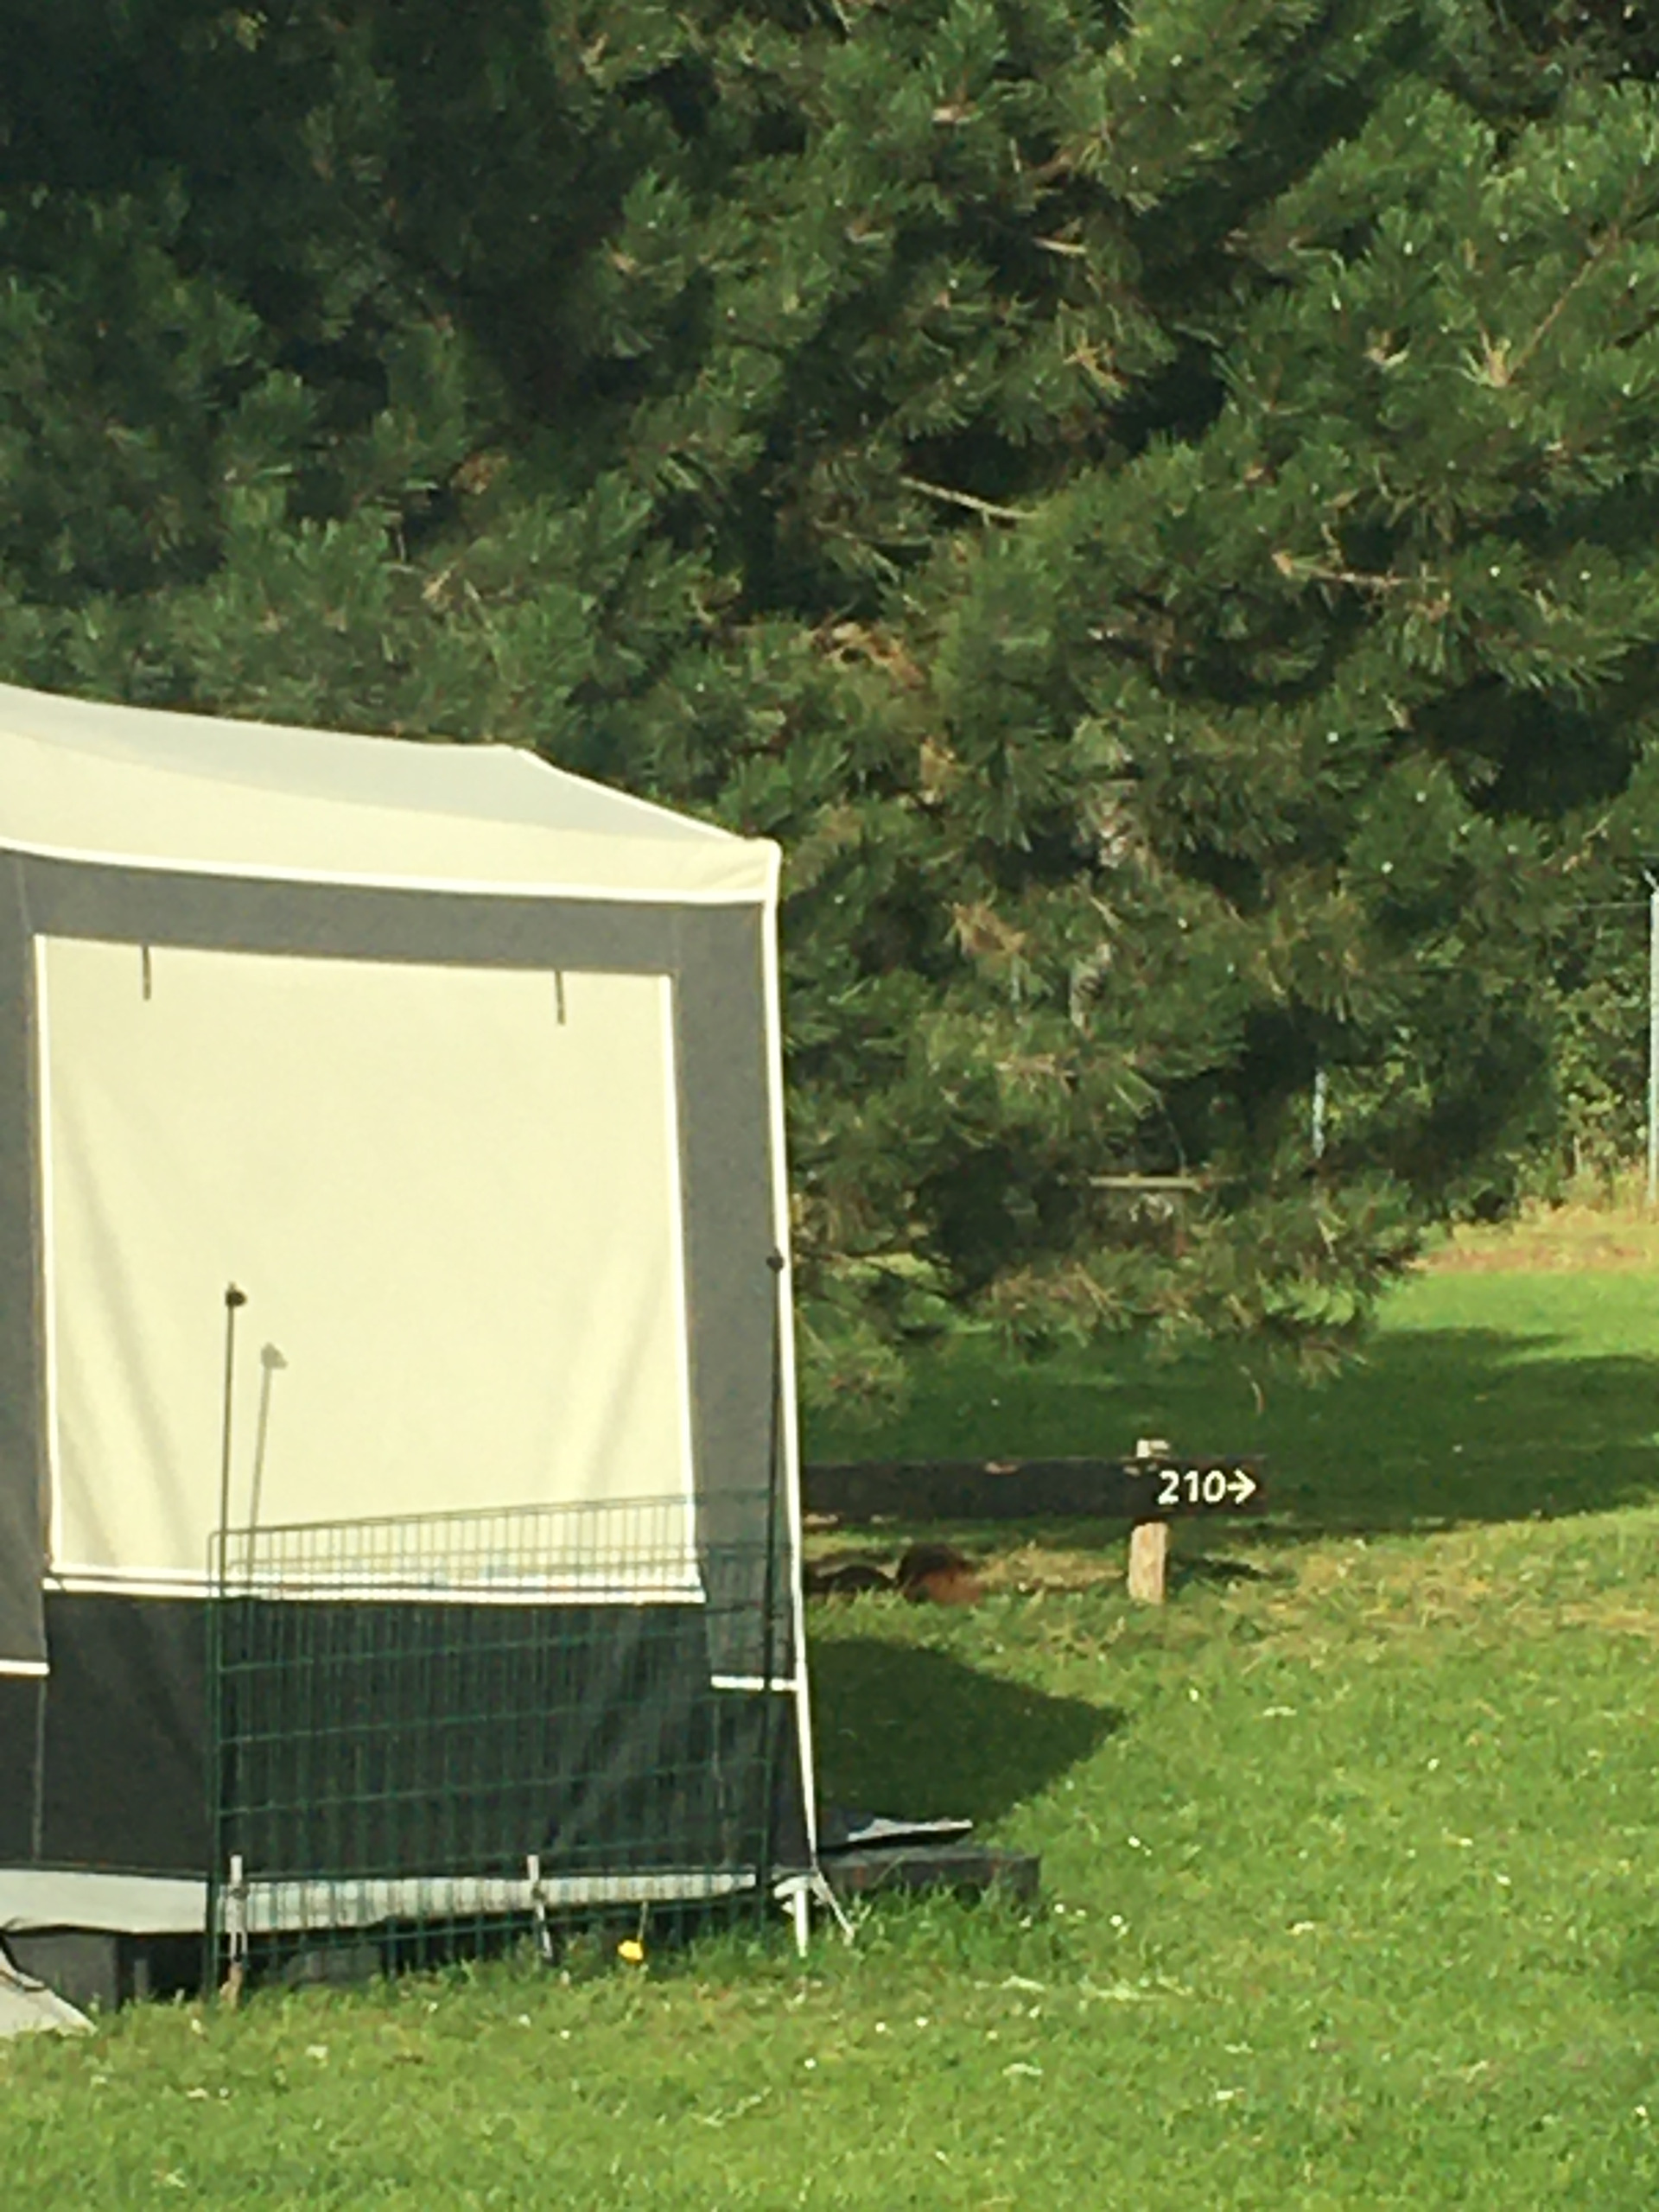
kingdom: Animalia
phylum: Chordata
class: Mammalia
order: Rodentia
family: Sciuridae
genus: Sciurus
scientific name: Sciurus vulgaris
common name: Egern
